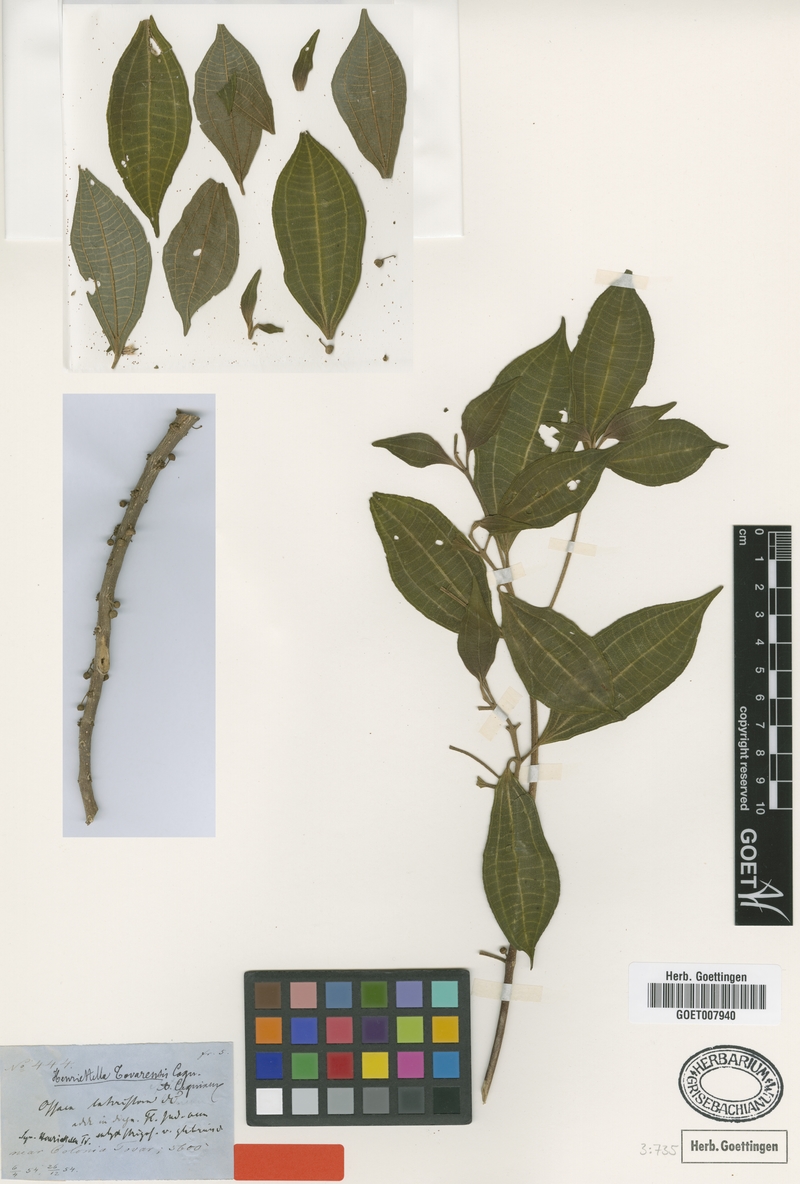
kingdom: Plantae
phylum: Tracheophyta
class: Magnoliopsida
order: Myrtales
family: Melastomataceae
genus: Henriettea
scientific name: Henriettea tovarensis
